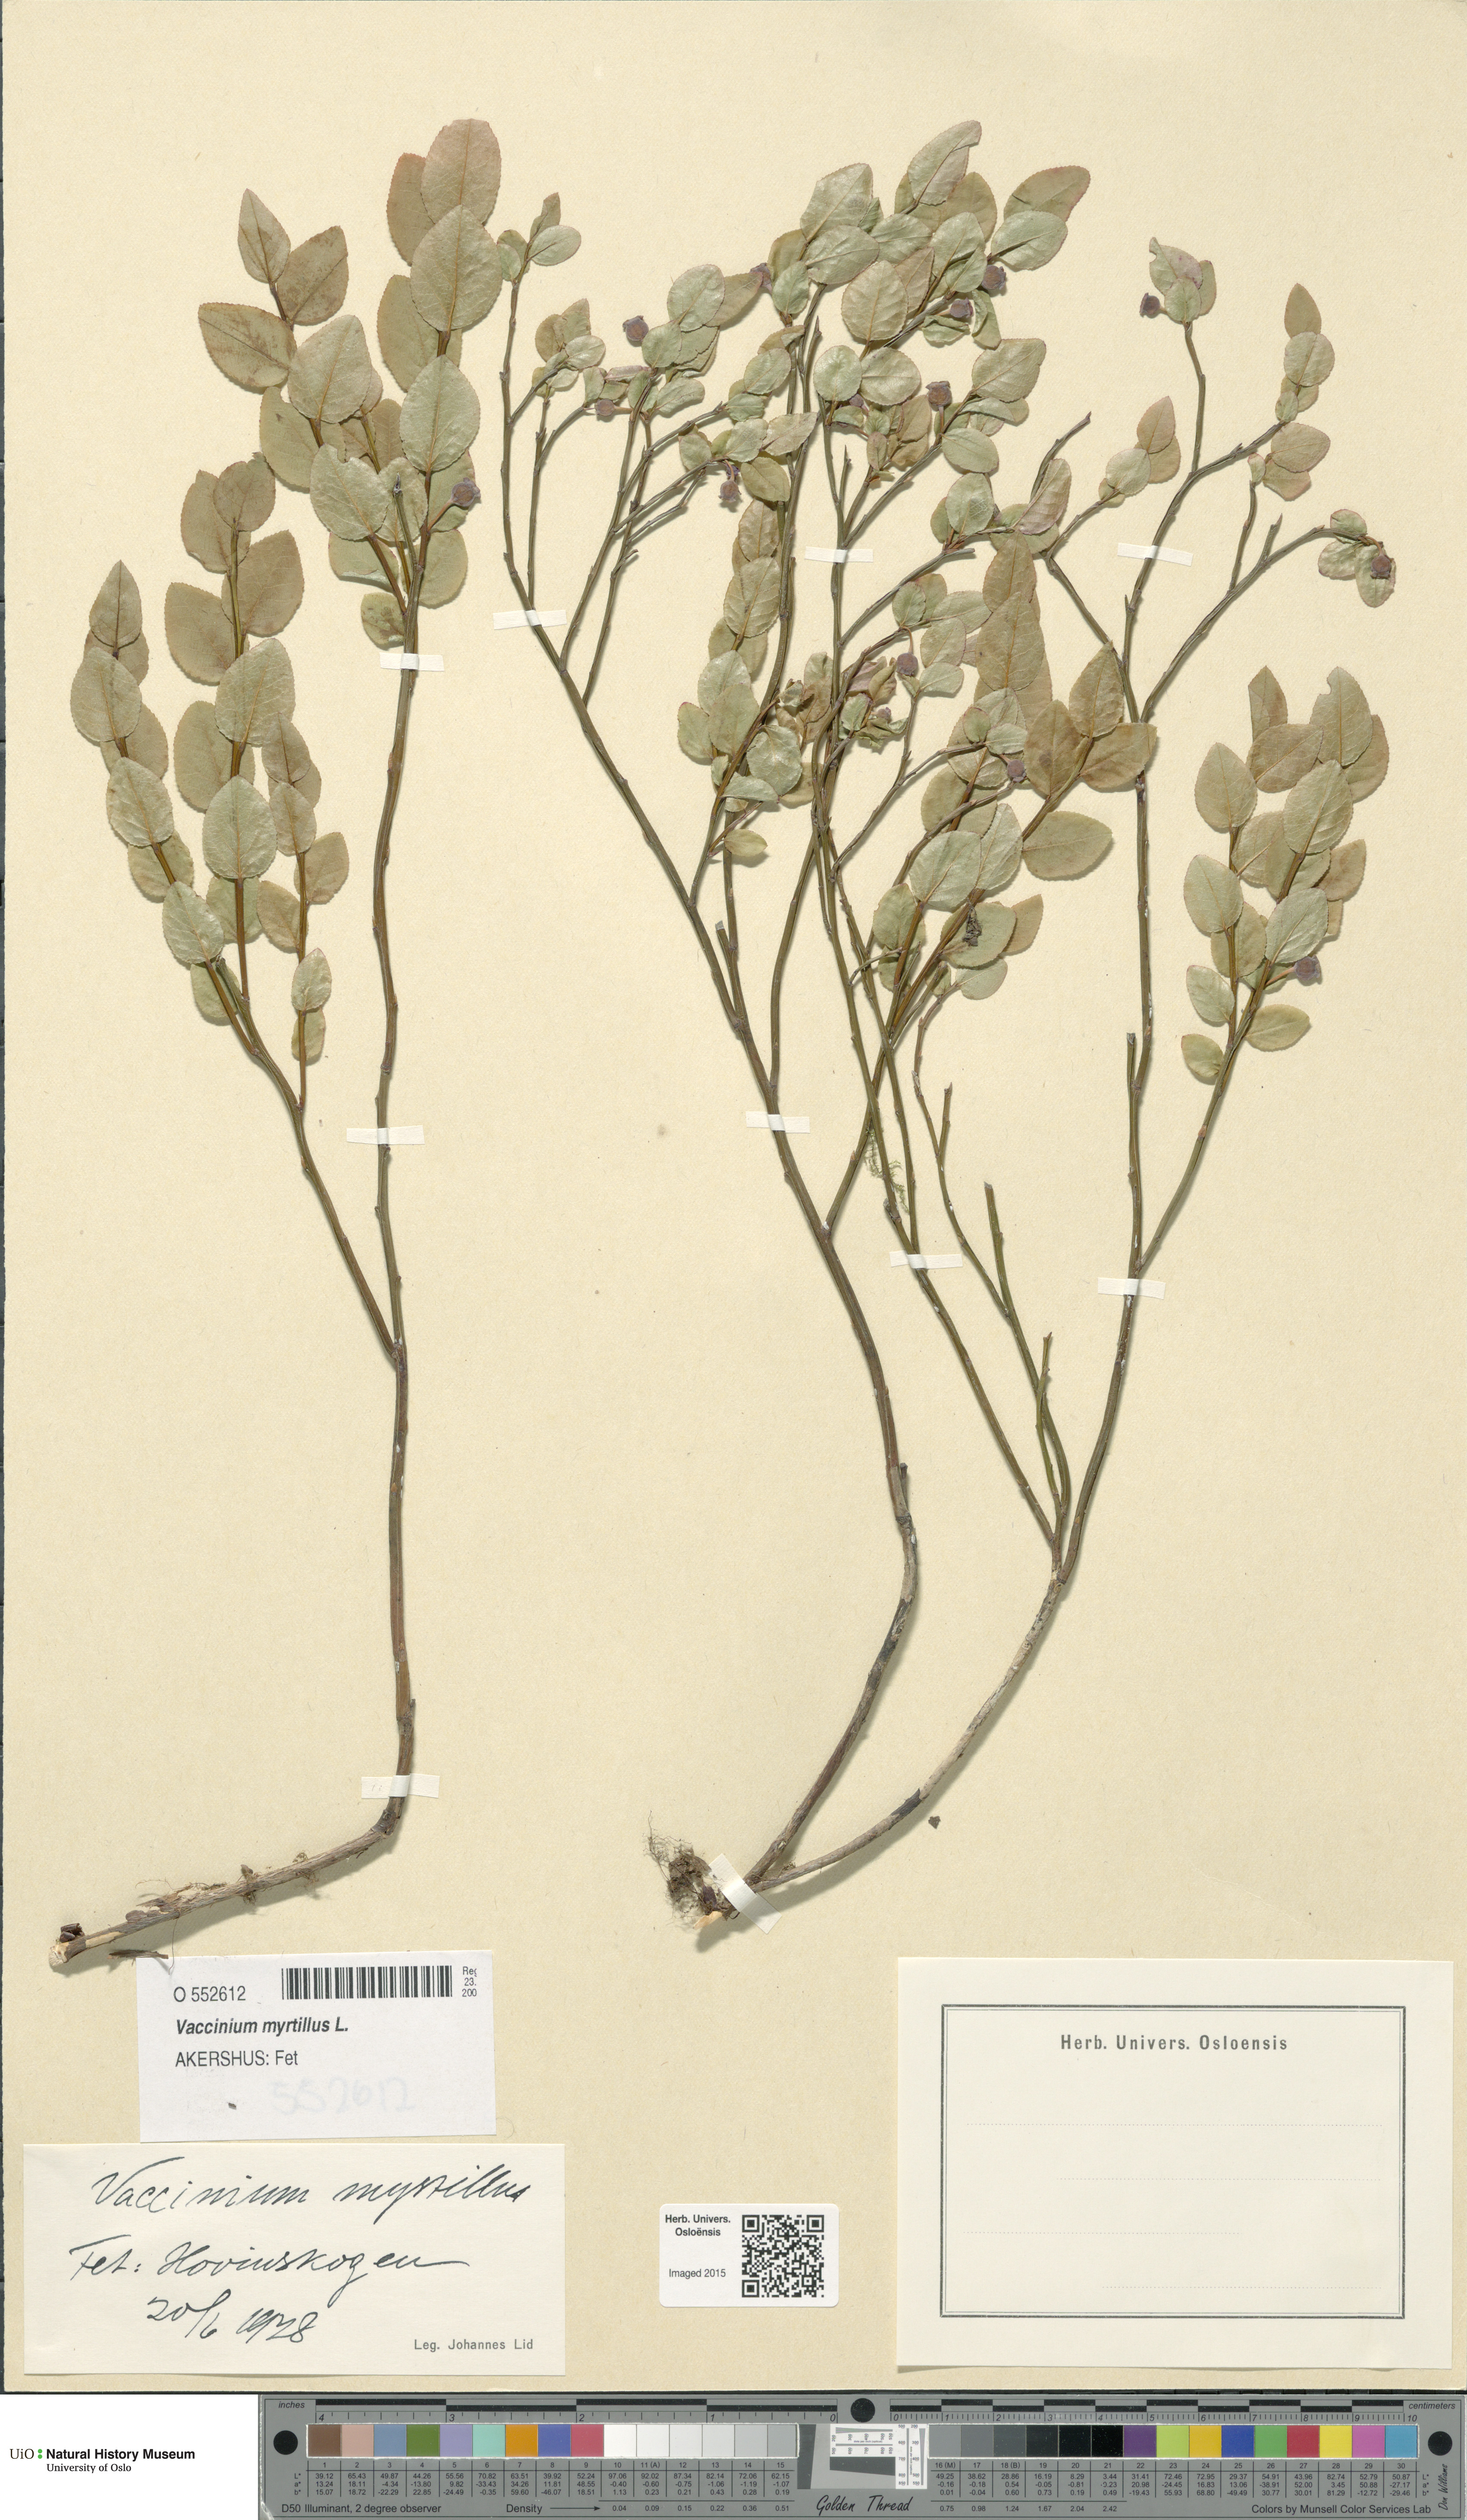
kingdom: Plantae
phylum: Tracheophyta
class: Magnoliopsida
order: Ericales
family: Ericaceae
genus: Vaccinium
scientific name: Vaccinium myrtillus
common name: Bilberry
